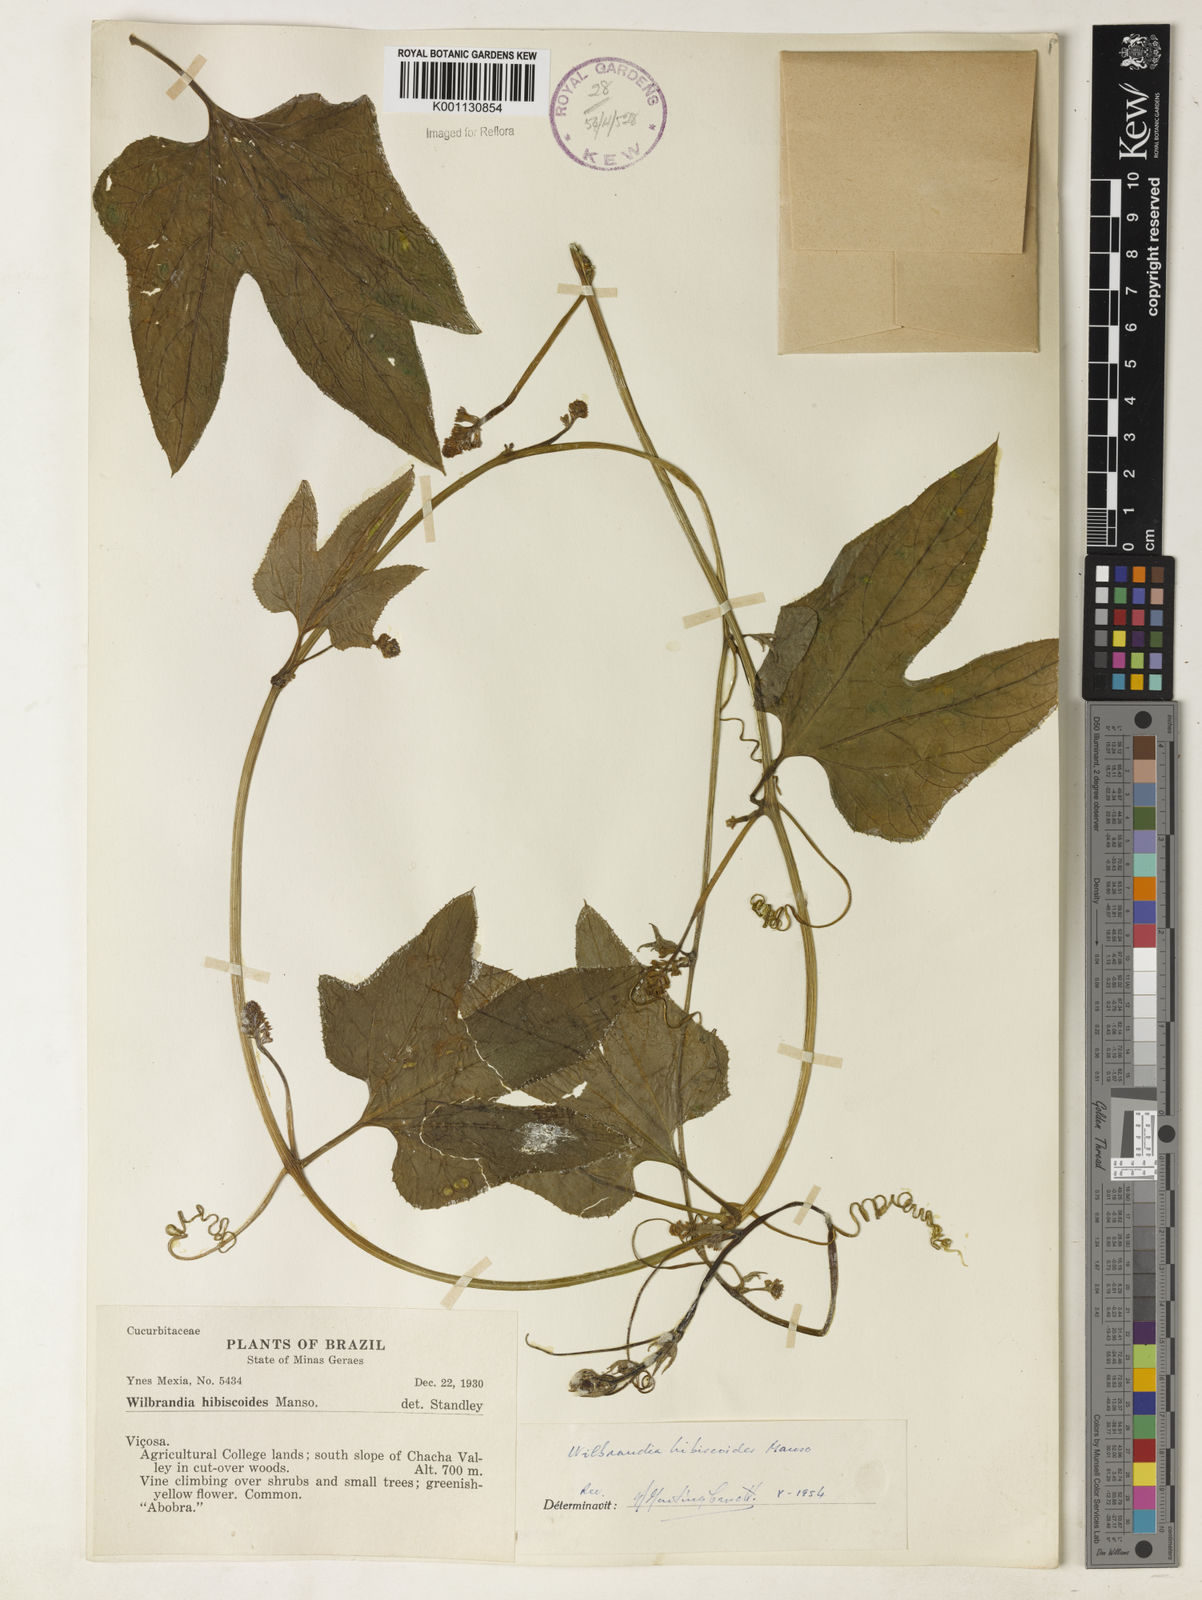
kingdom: Plantae
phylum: Tracheophyta
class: Magnoliopsida
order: Cucurbitales
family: Cucurbitaceae
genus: Wilbrandia
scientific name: Wilbrandia hibiscoides
